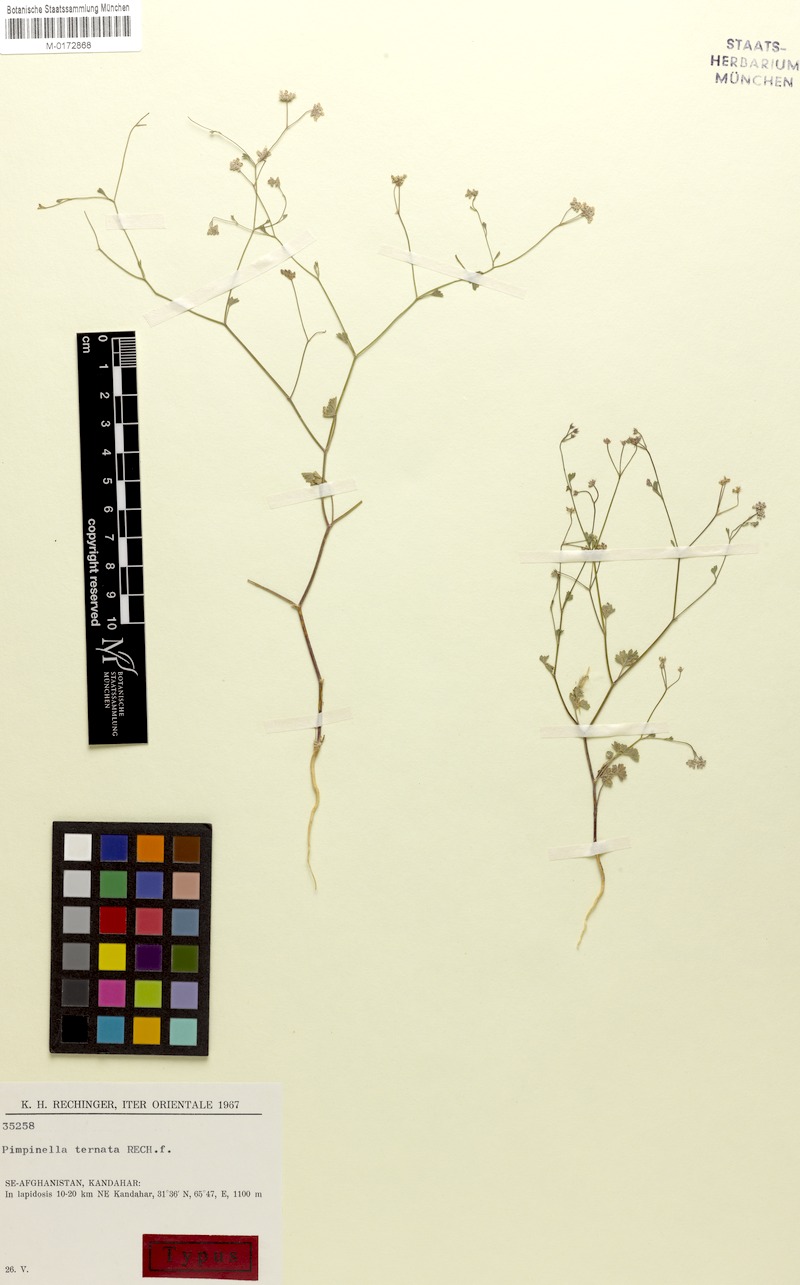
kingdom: Plantae
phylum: Tracheophyta
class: Magnoliopsida
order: Apiales
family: Apiaceae
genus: Psammogeton
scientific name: Psammogeton ternatus
